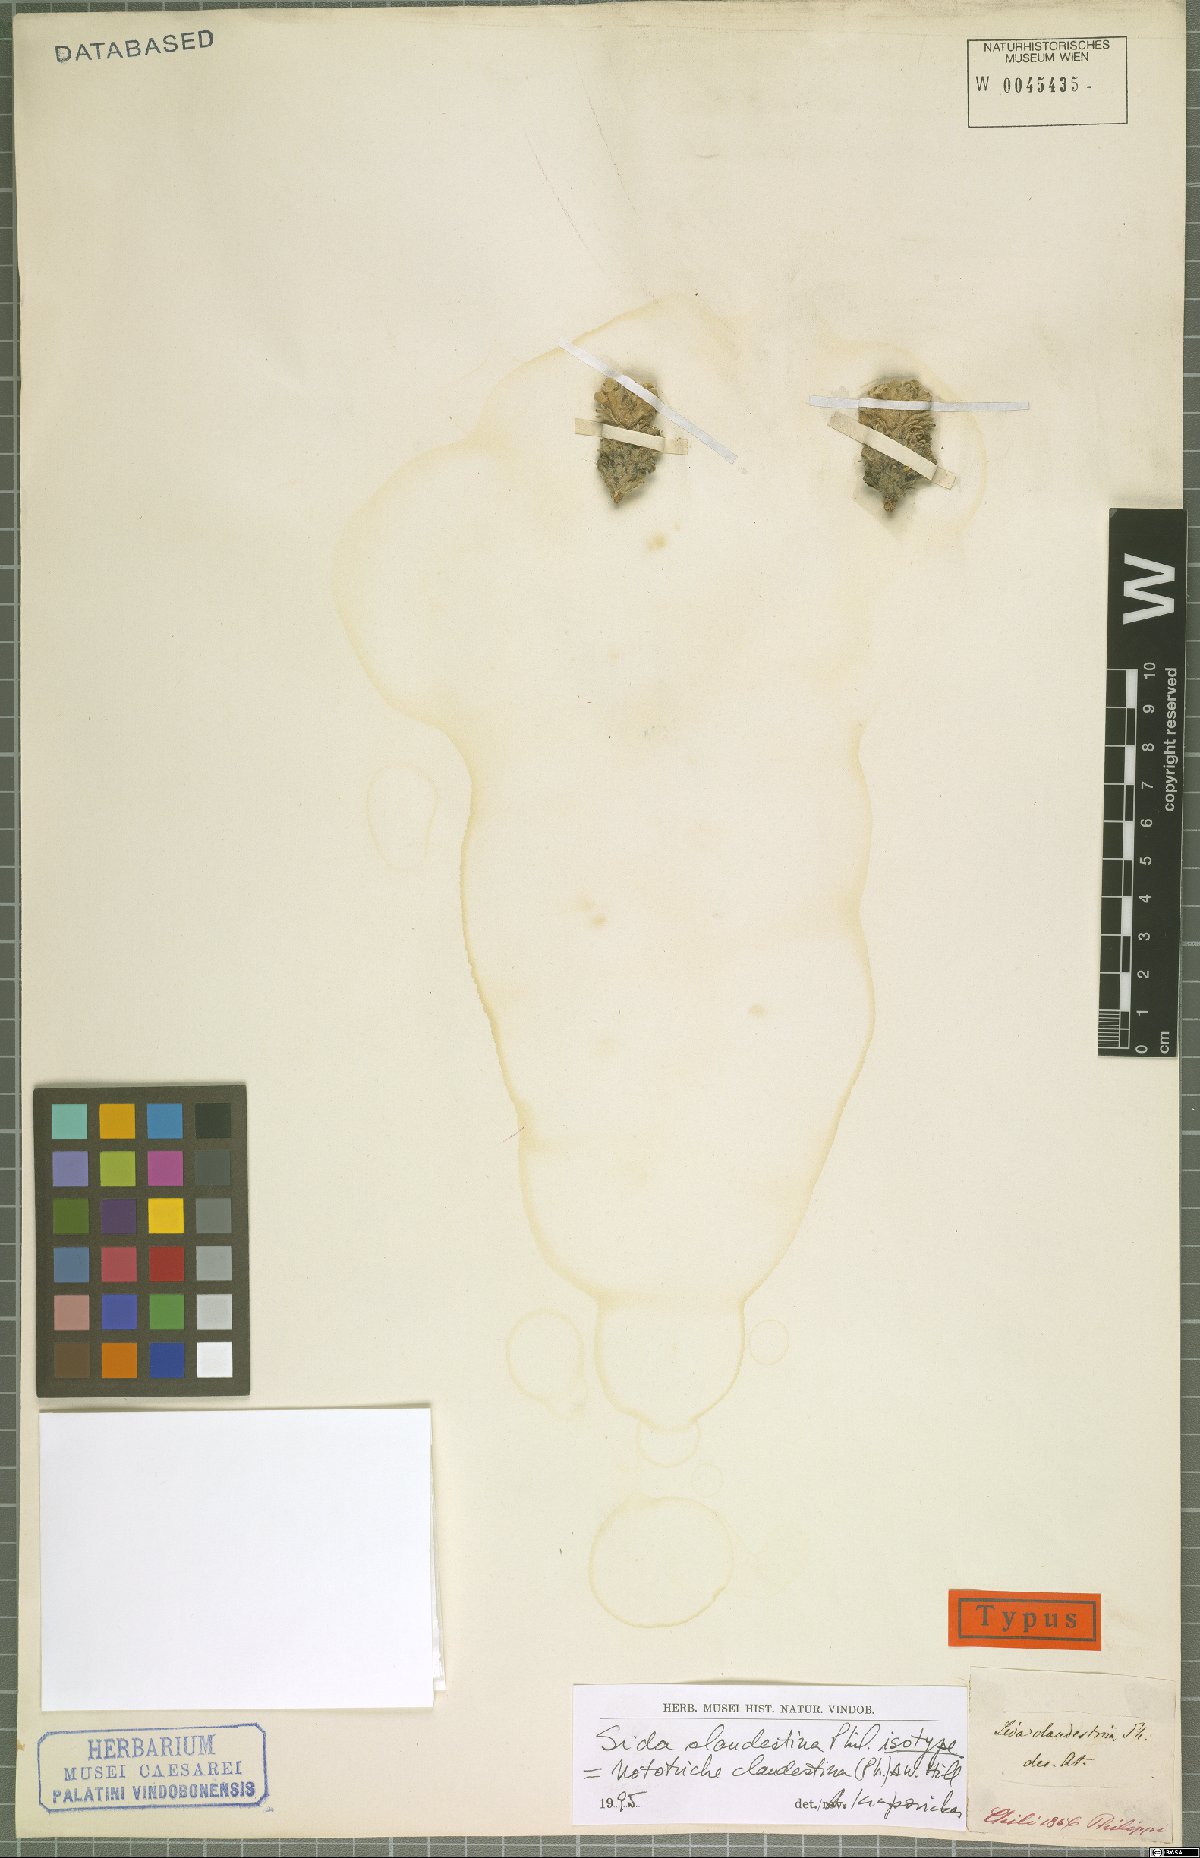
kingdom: Plantae
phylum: Tracheophyta
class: Magnoliopsida
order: Malvales
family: Malvaceae
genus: Nototriche
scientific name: Nototriche clandestina
